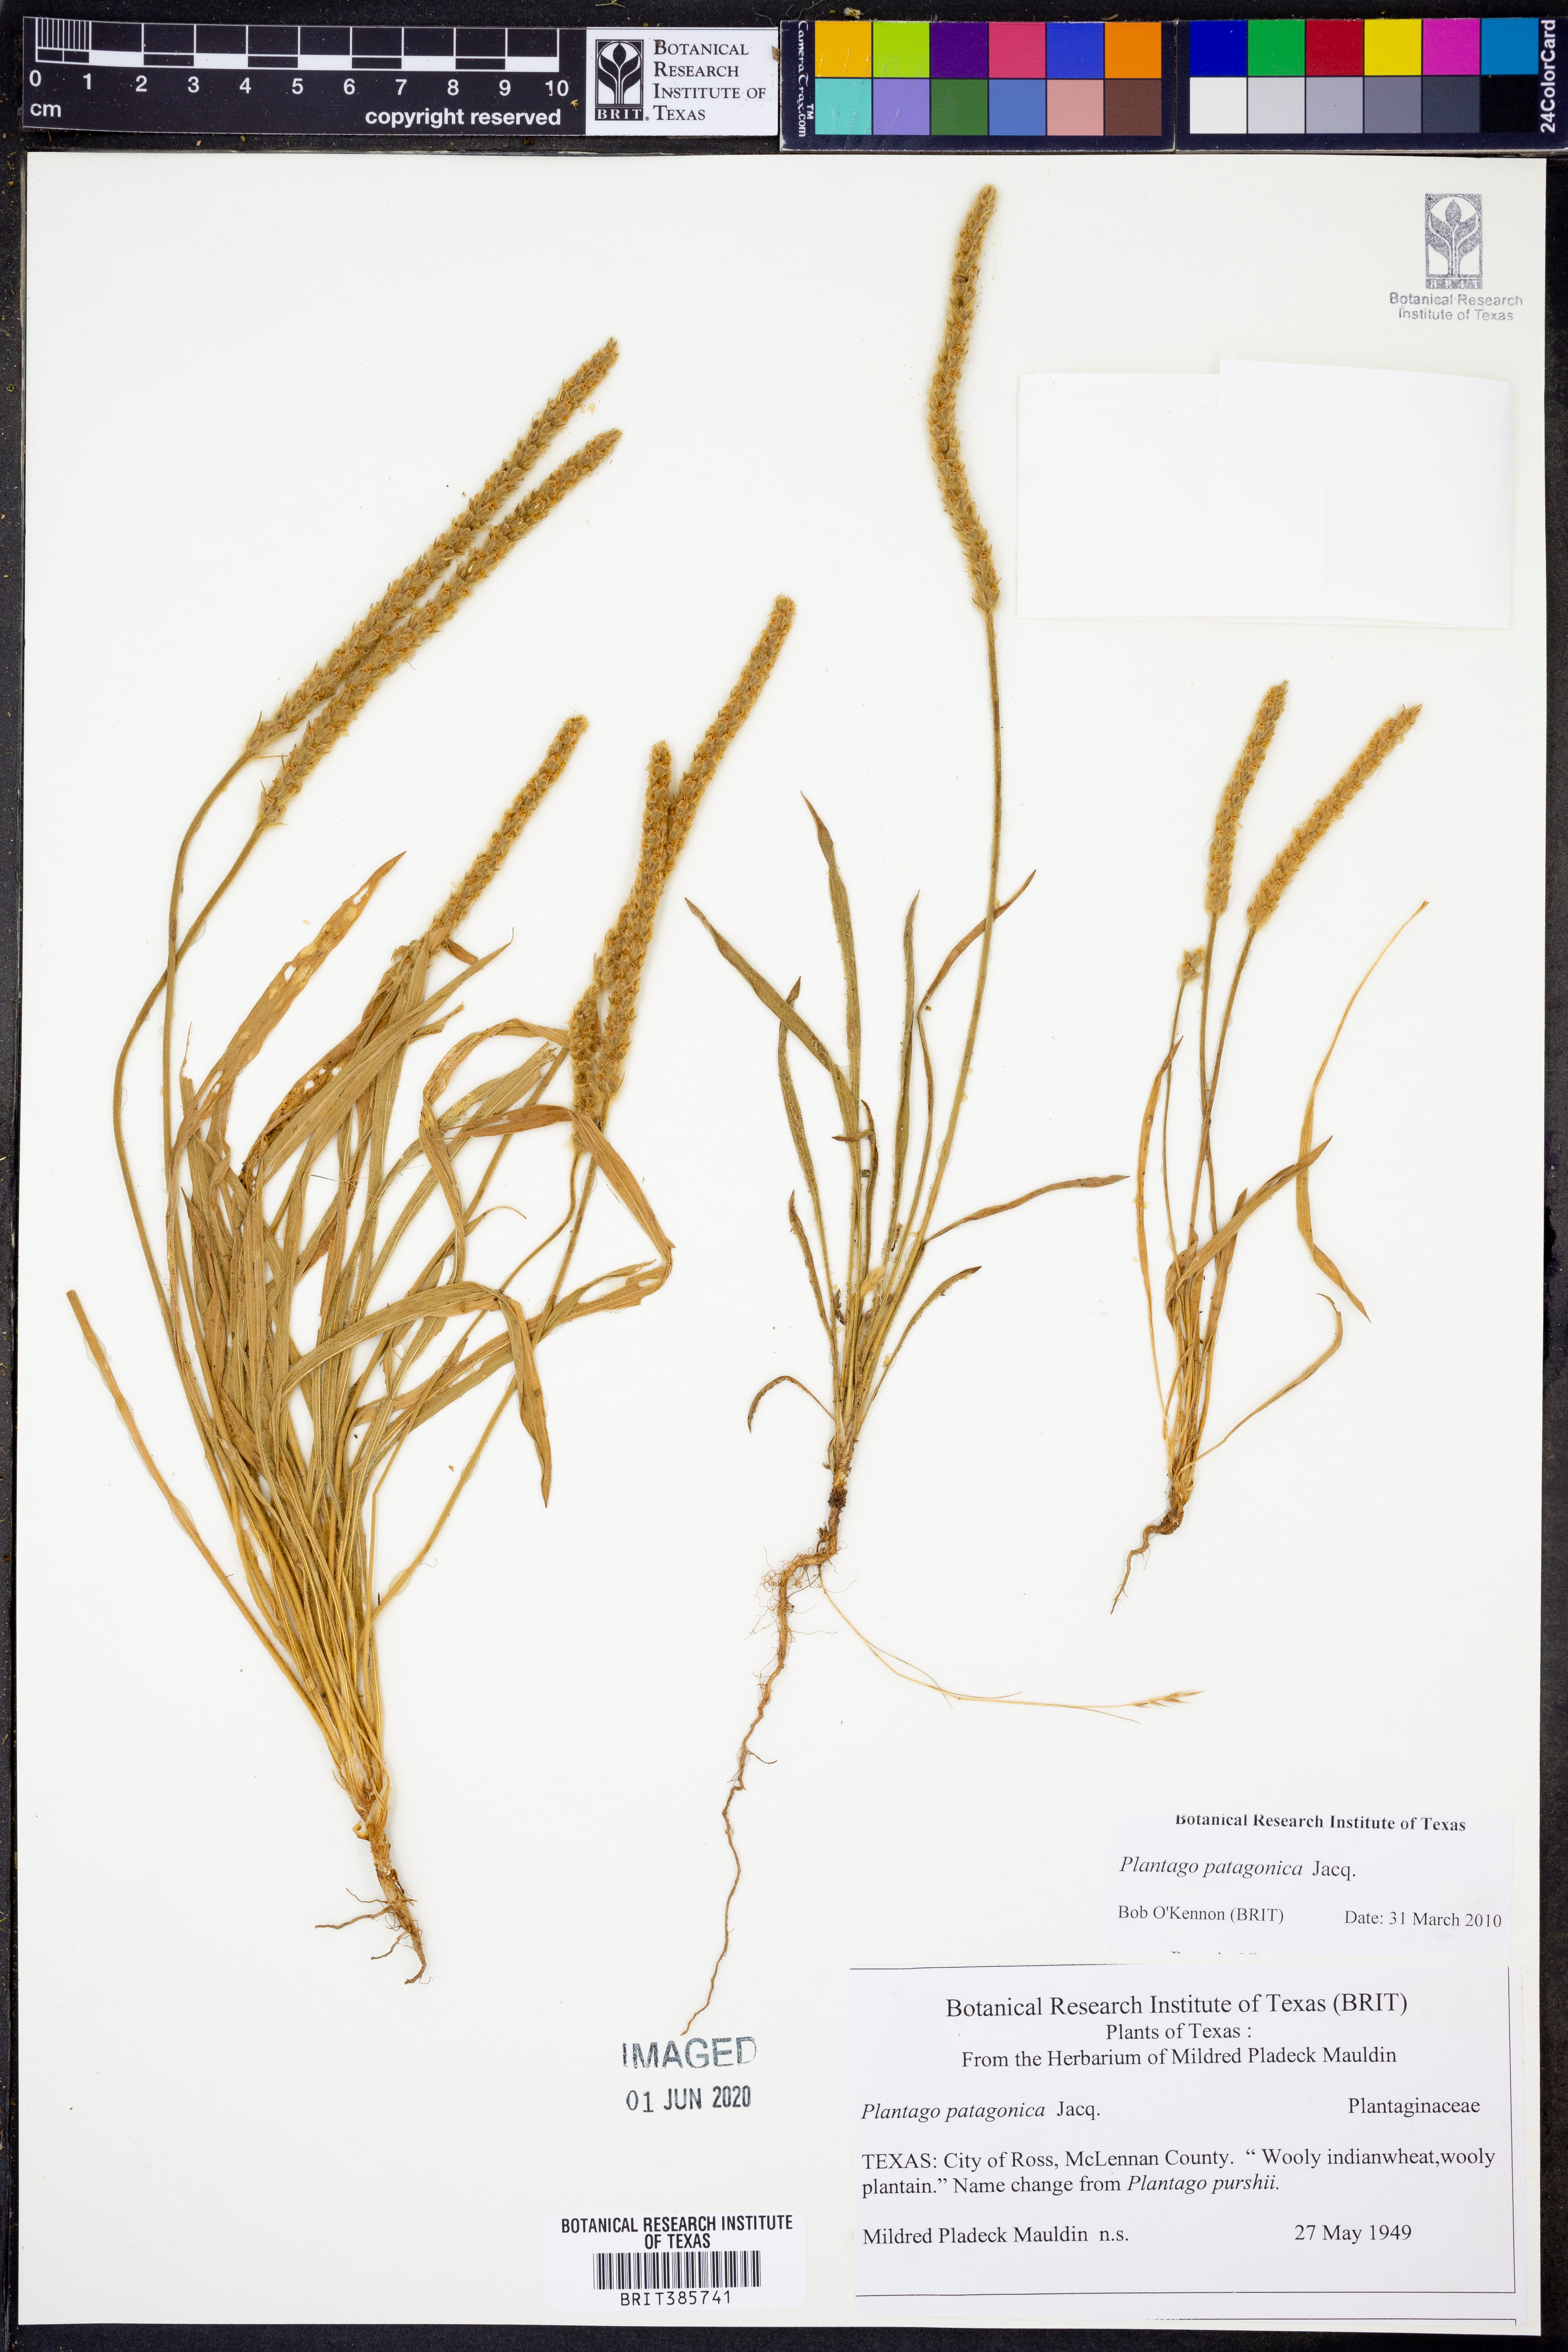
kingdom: Plantae
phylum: Tracheophyta
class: Magnoliopsida
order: Lamiales
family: Plantaginaceae
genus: Plantago
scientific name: Plantago patagonica
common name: Patagonia indian-wheat
